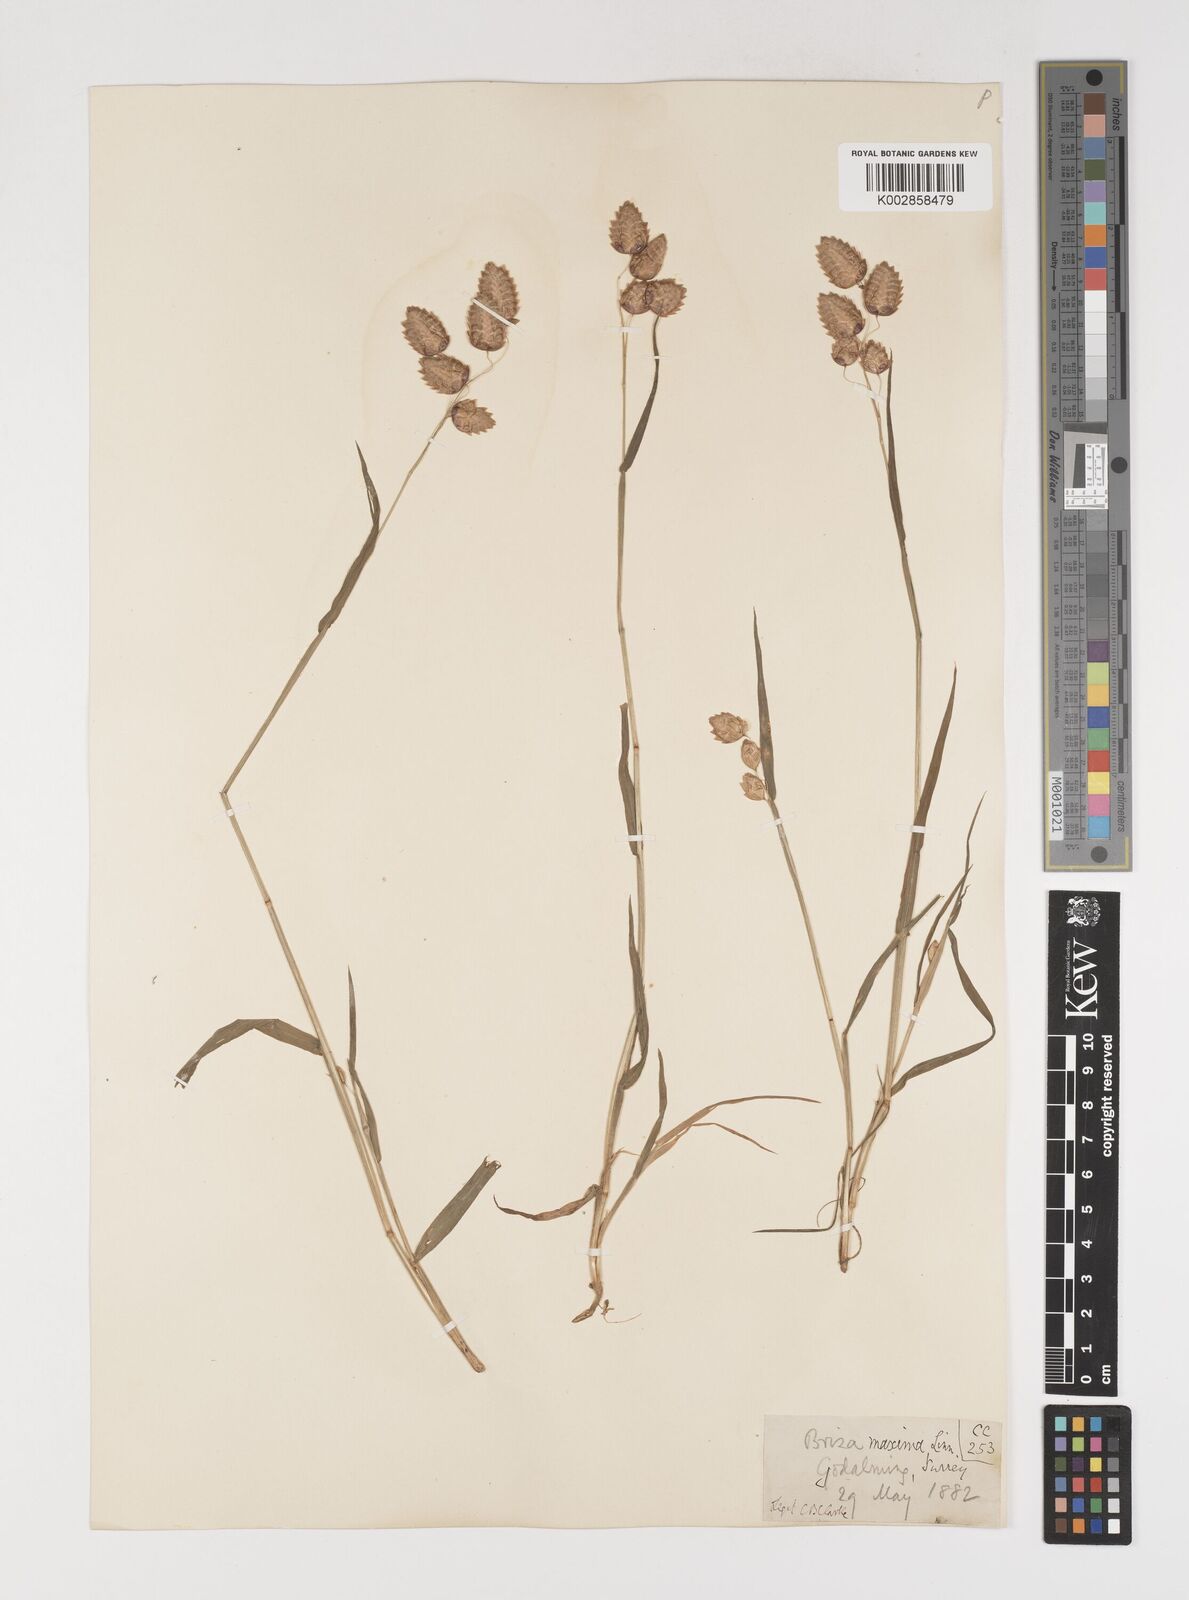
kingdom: Plantae
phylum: Tracheophyta
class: Liliopsida
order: Poales
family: Poaceae
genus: Briza
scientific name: Briza maxima
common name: Big quakinggrass
